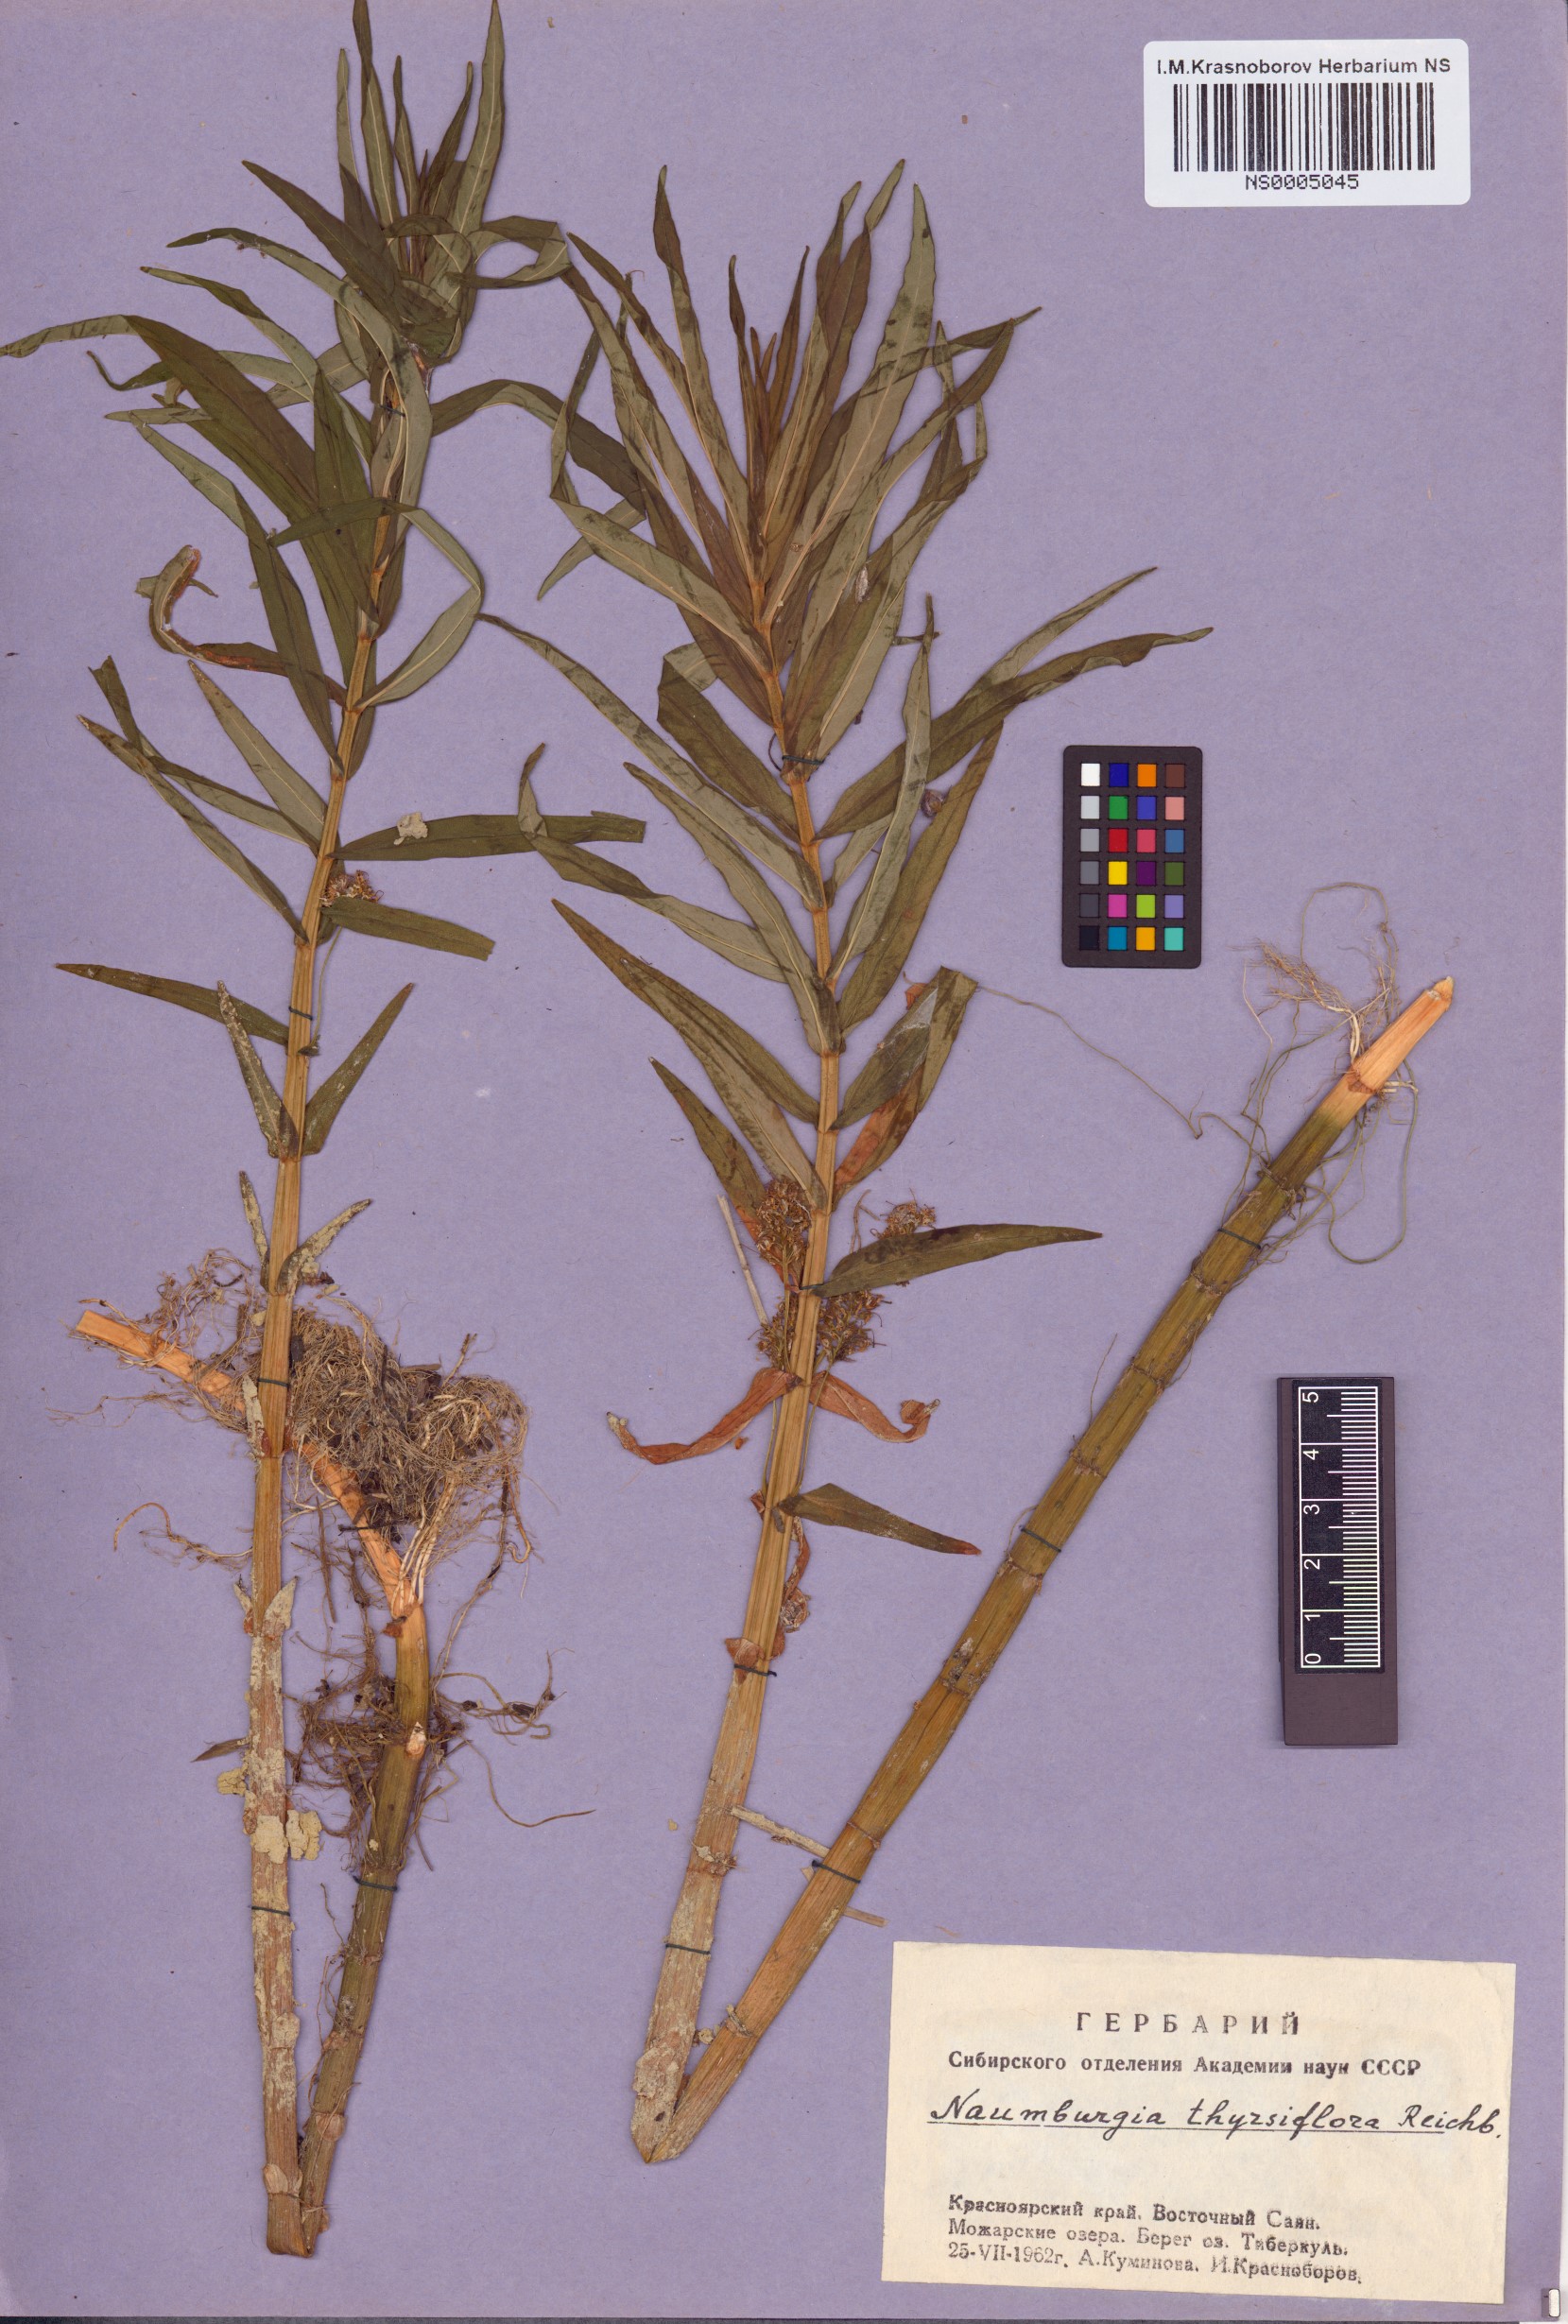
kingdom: Plantae
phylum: Tracheophyta
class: Magnoliopsida
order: Ericales
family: Primulaceae
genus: Lysimachia
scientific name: Lysimachia thyrsiflora
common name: Tufted loosestrife
